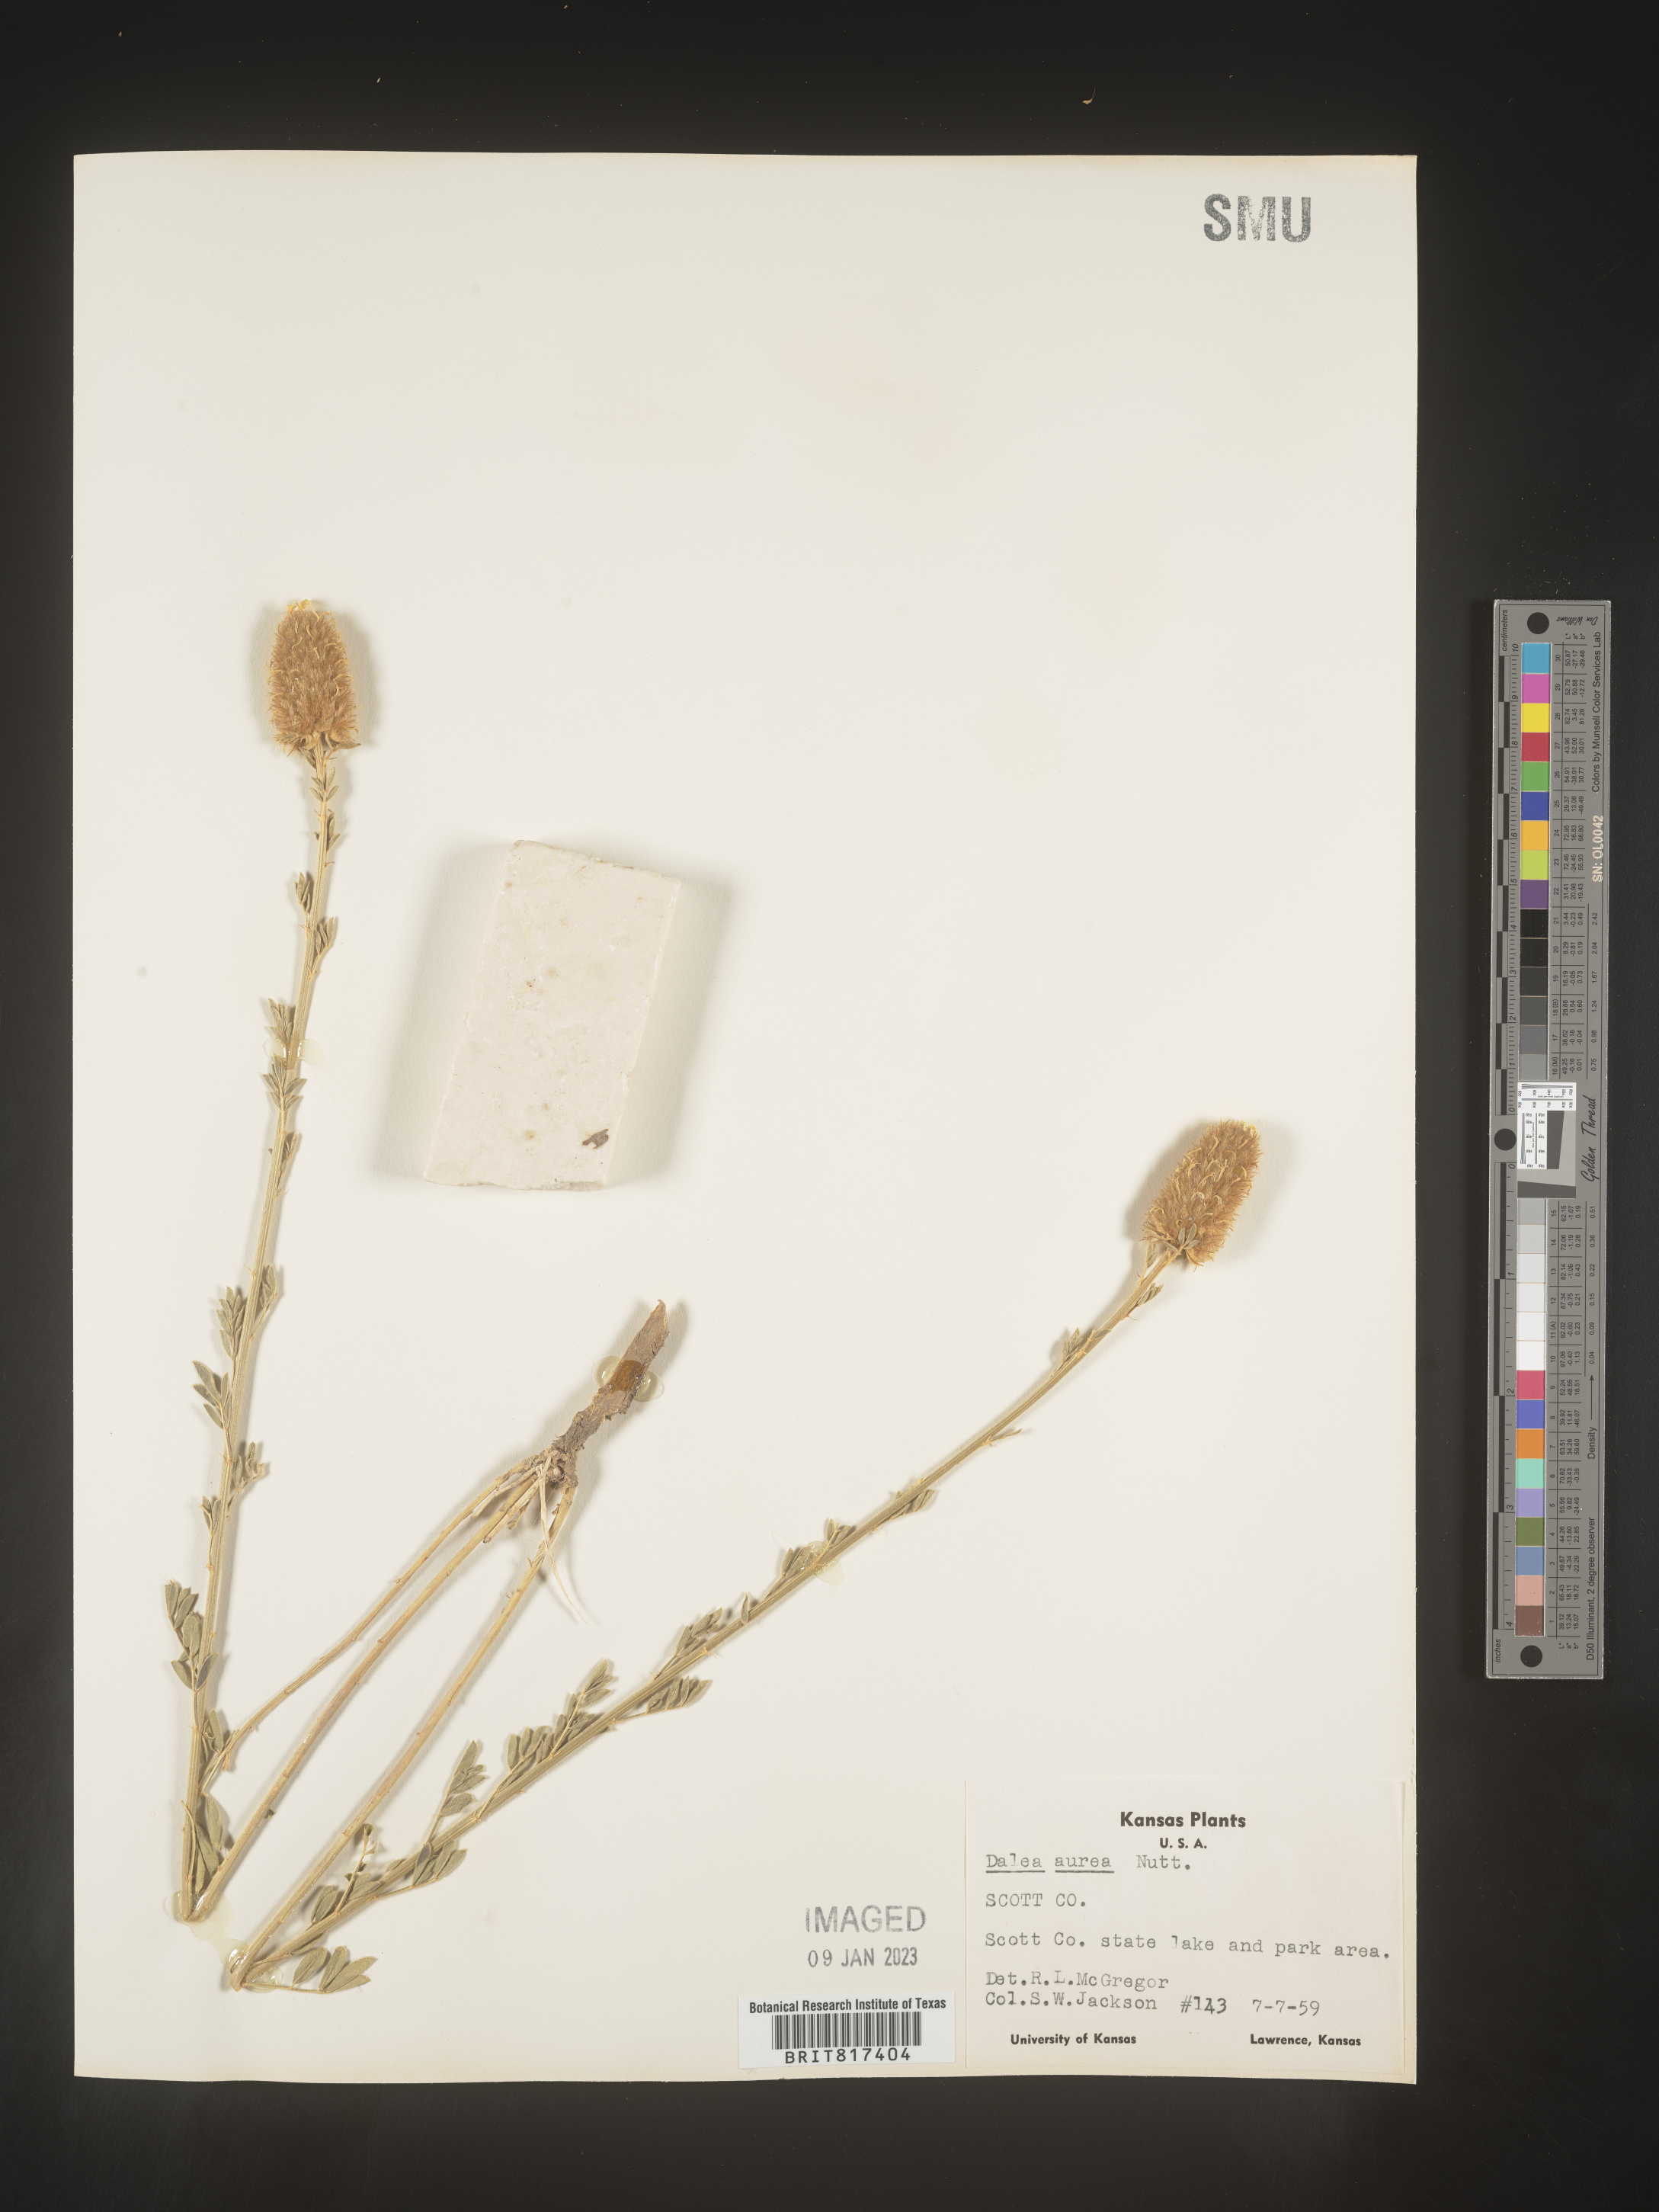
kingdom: Plantae
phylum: Tracheophyta
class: Magnoliopsida
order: Fabales
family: Fabaceae
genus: Dalea
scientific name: Dalea aurea
